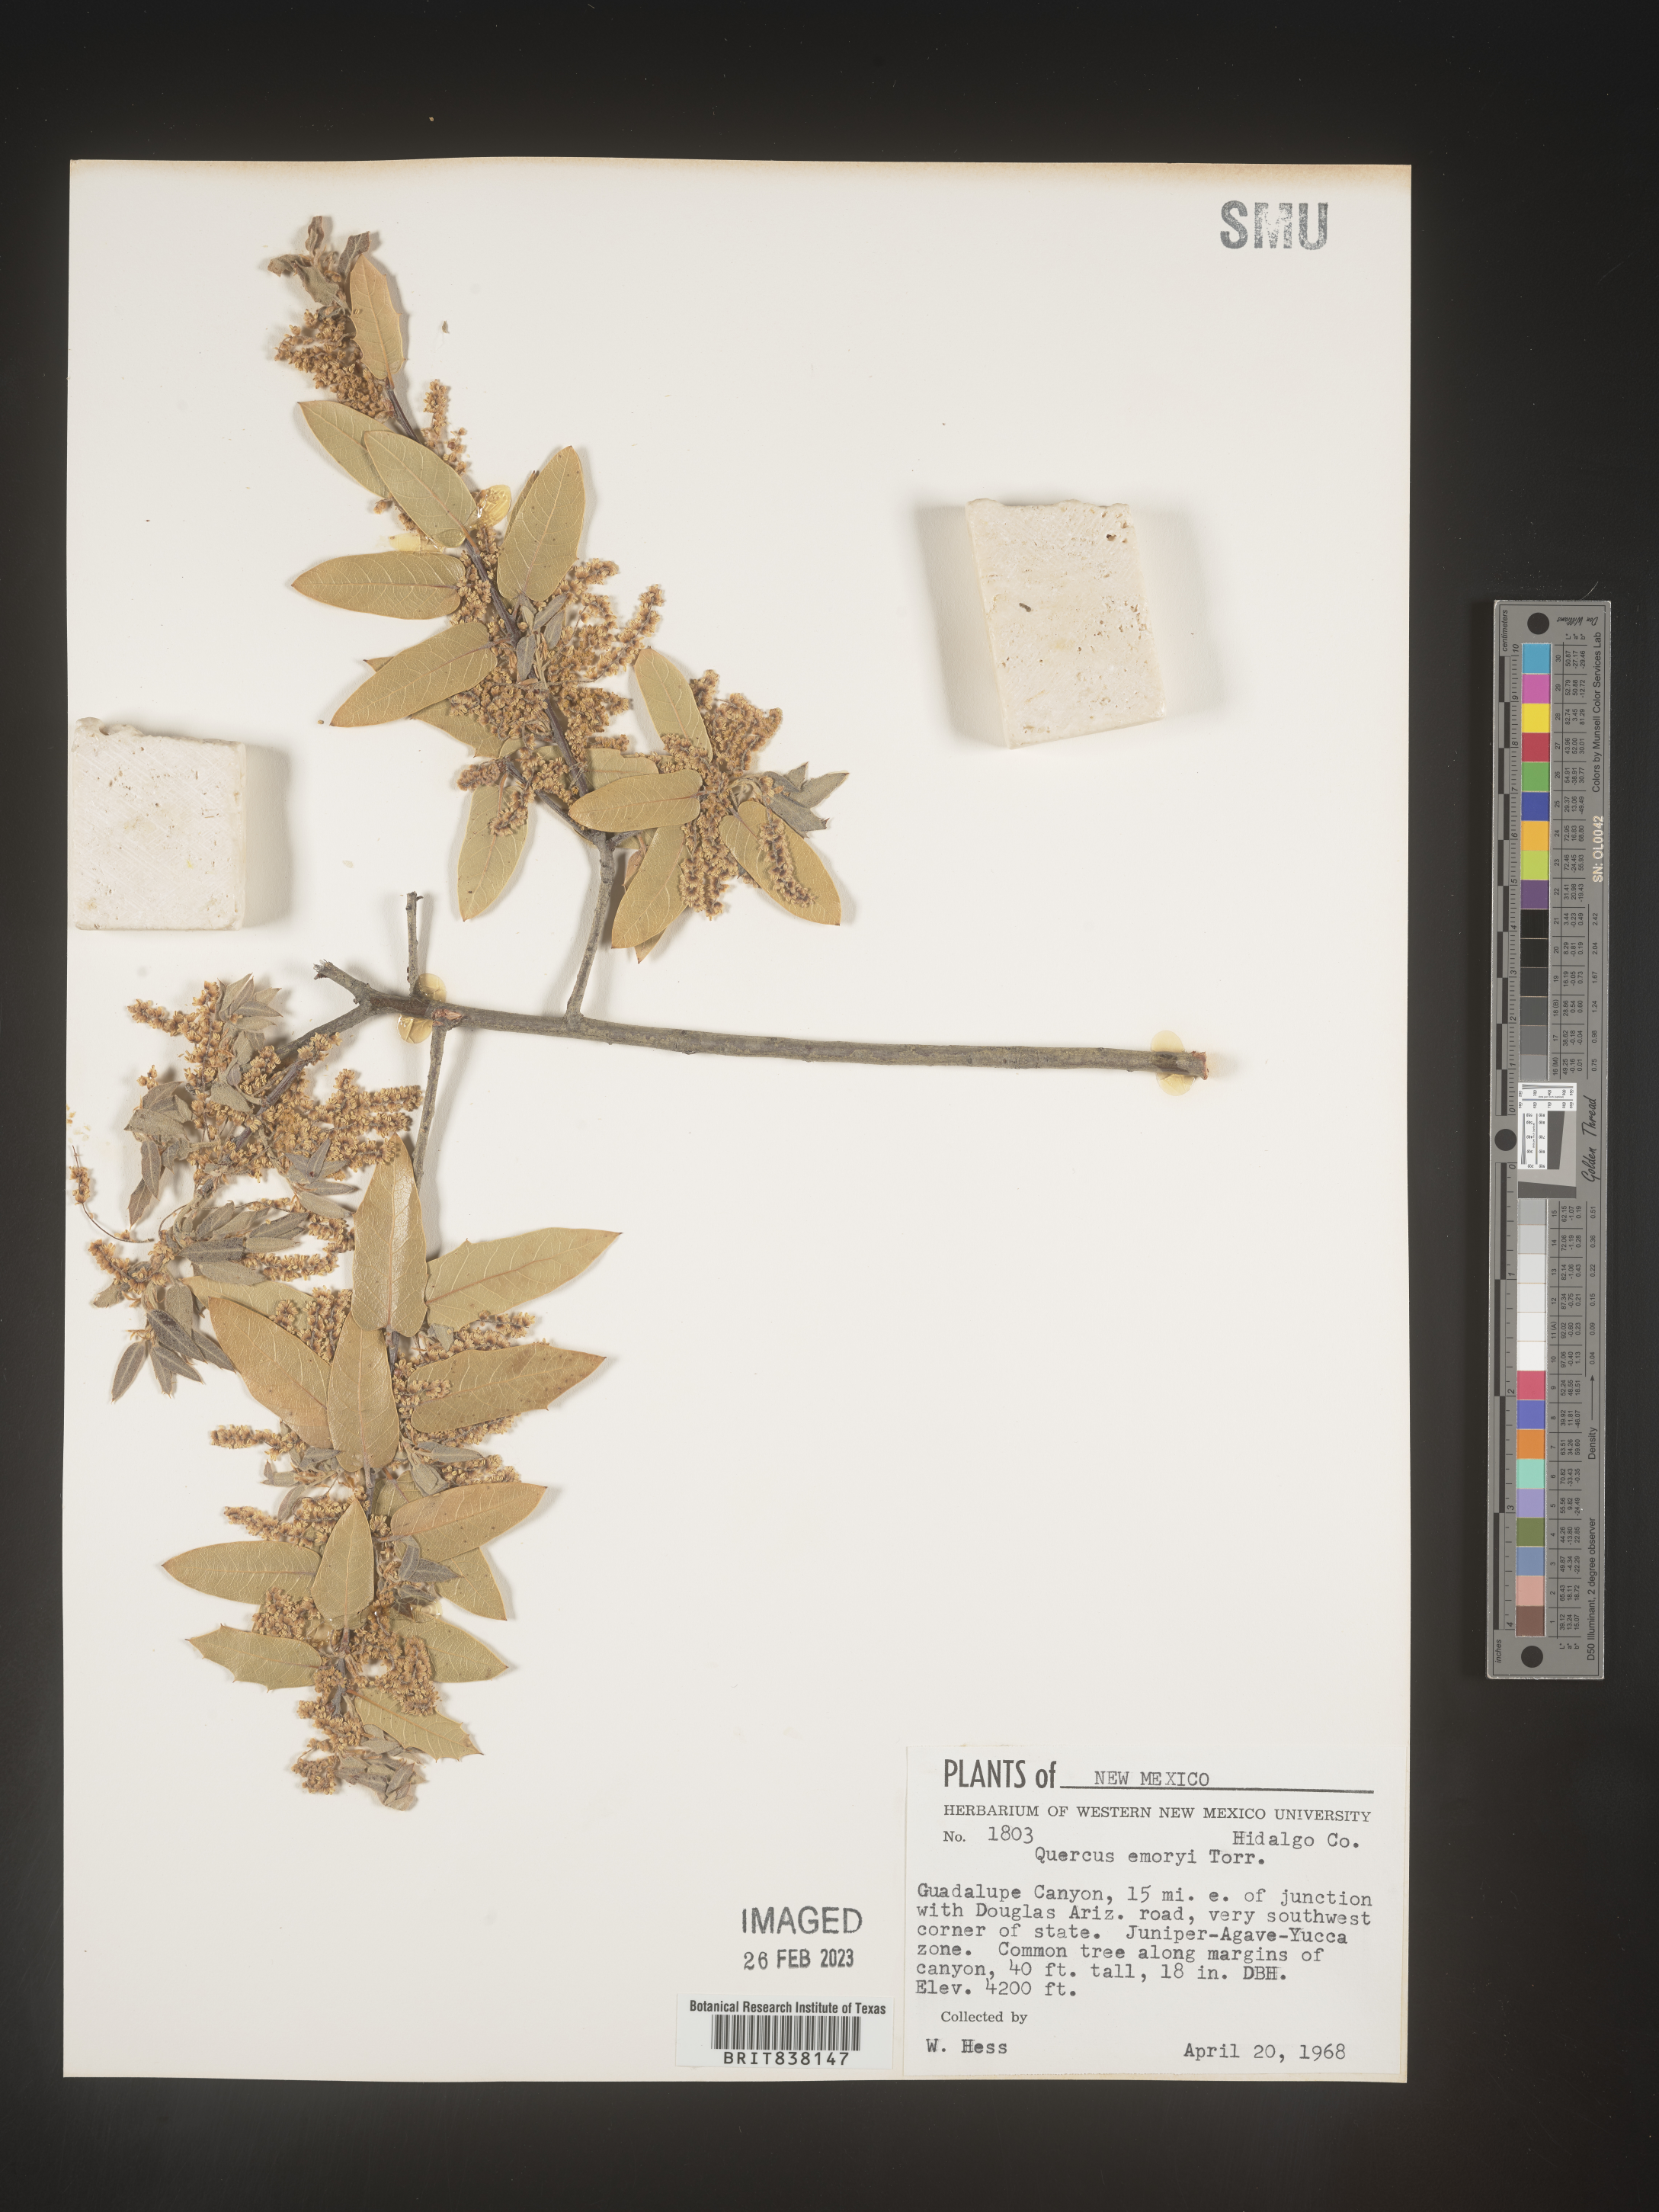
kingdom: Plantae
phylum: Tracheophyta
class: Magnoliopsida
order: Fagales
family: Fagaceae
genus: Quercus
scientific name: Quercus
